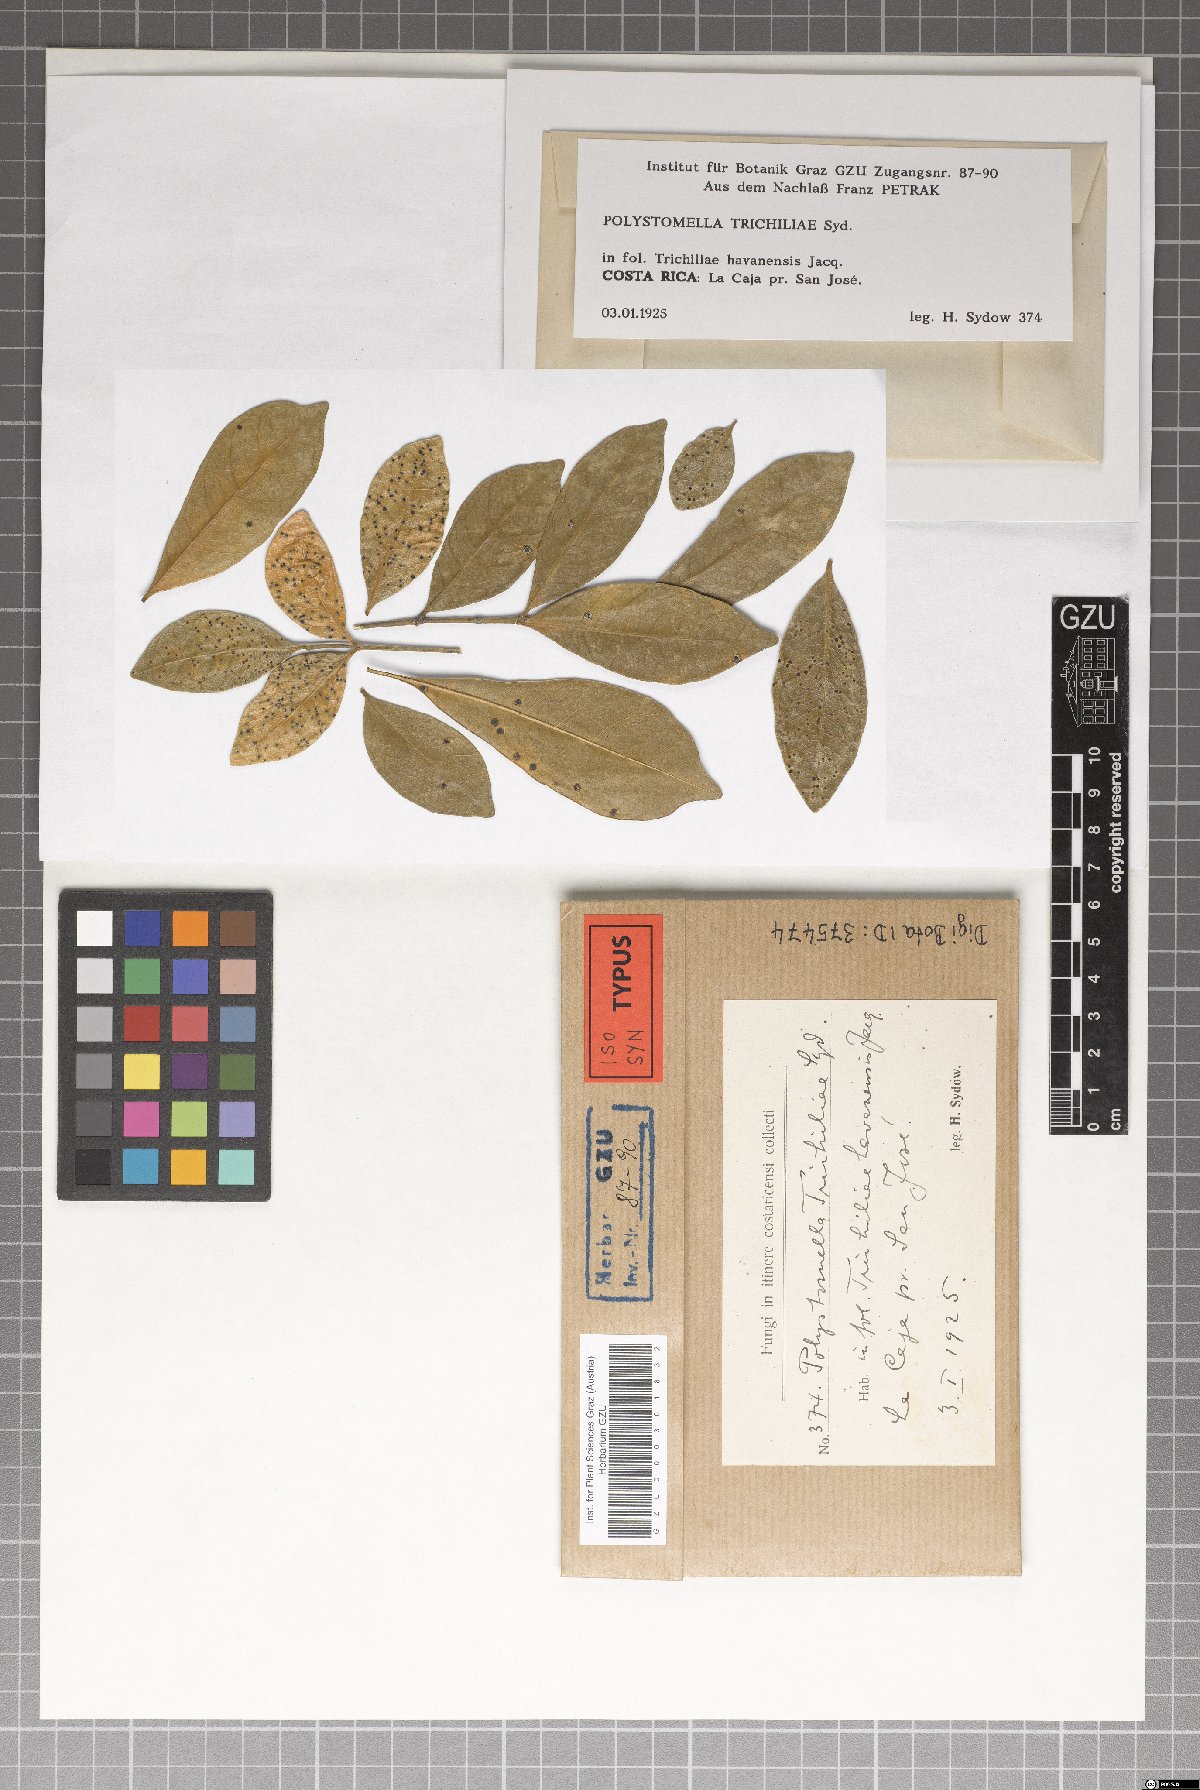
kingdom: Fungi
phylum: Ascomycota
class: Dothideomycetes
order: Asterinales
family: Parmulariaceae
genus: Protothyrium
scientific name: Protothyrium trichiliae
